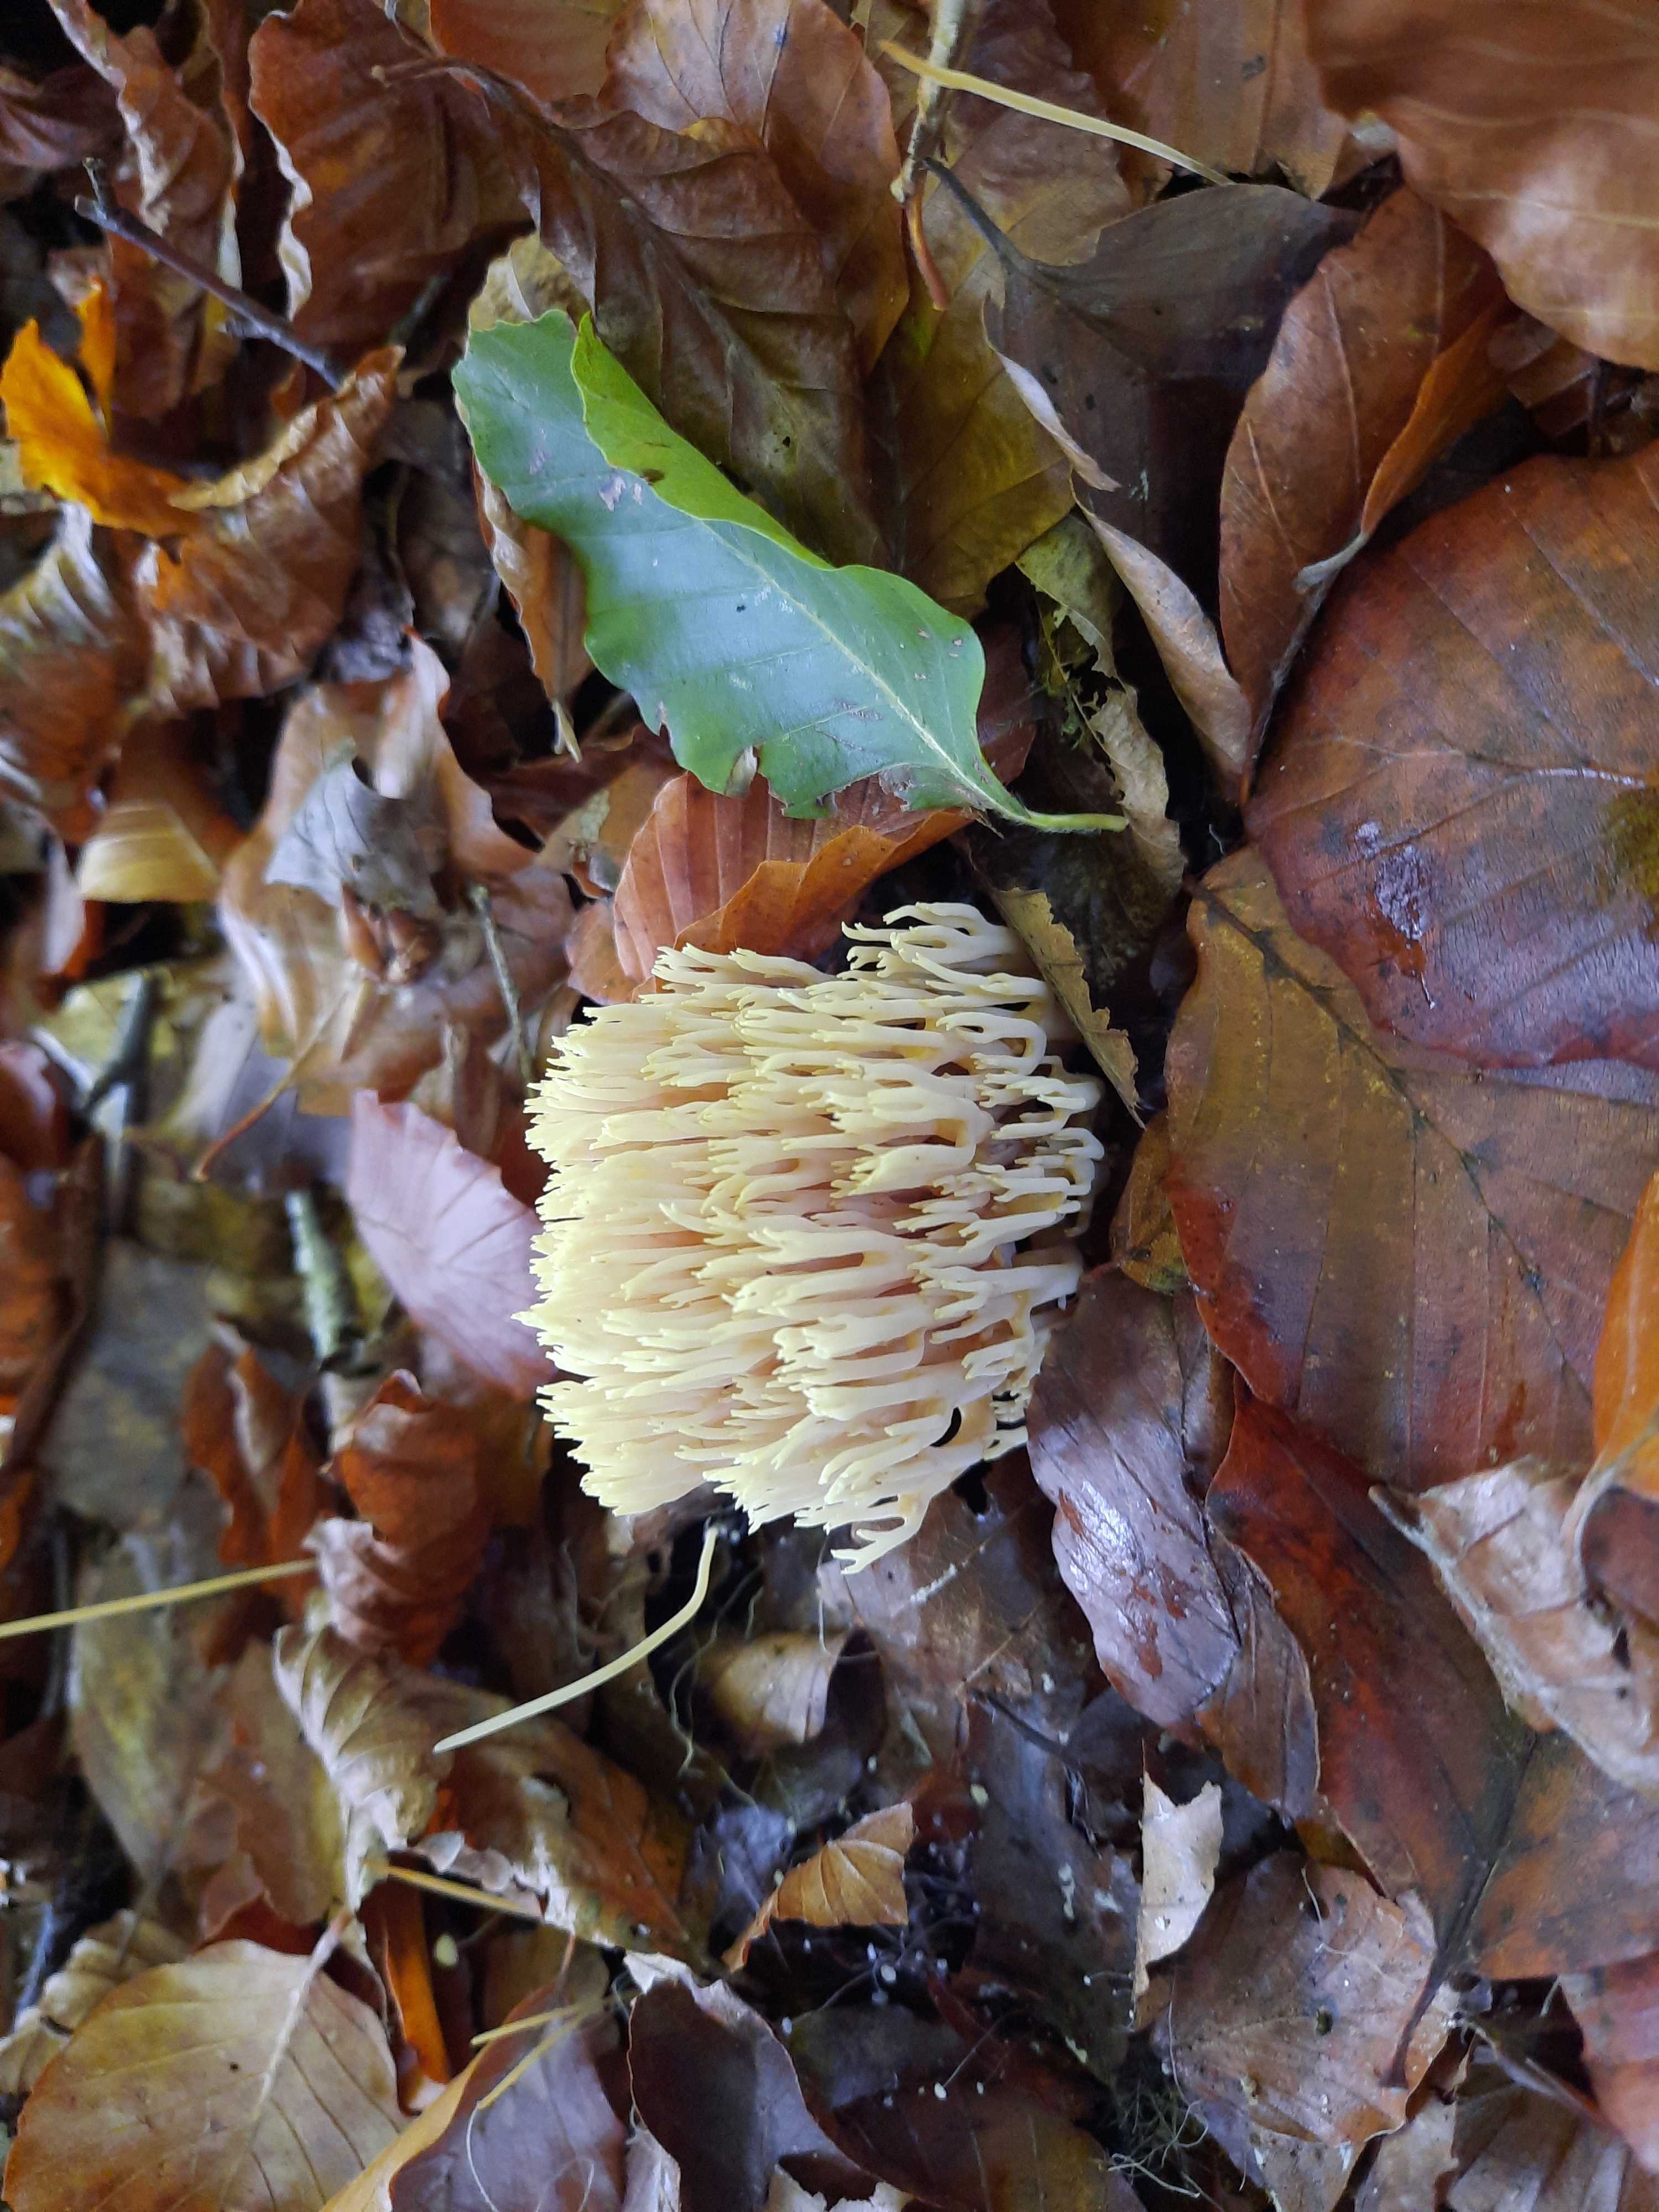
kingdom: Fungi
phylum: Basidiomycota
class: Agaricomycetes
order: Gomphales
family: Gomphaceae
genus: Ramaria
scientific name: Ramaria stricta
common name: rank koralsvamp
